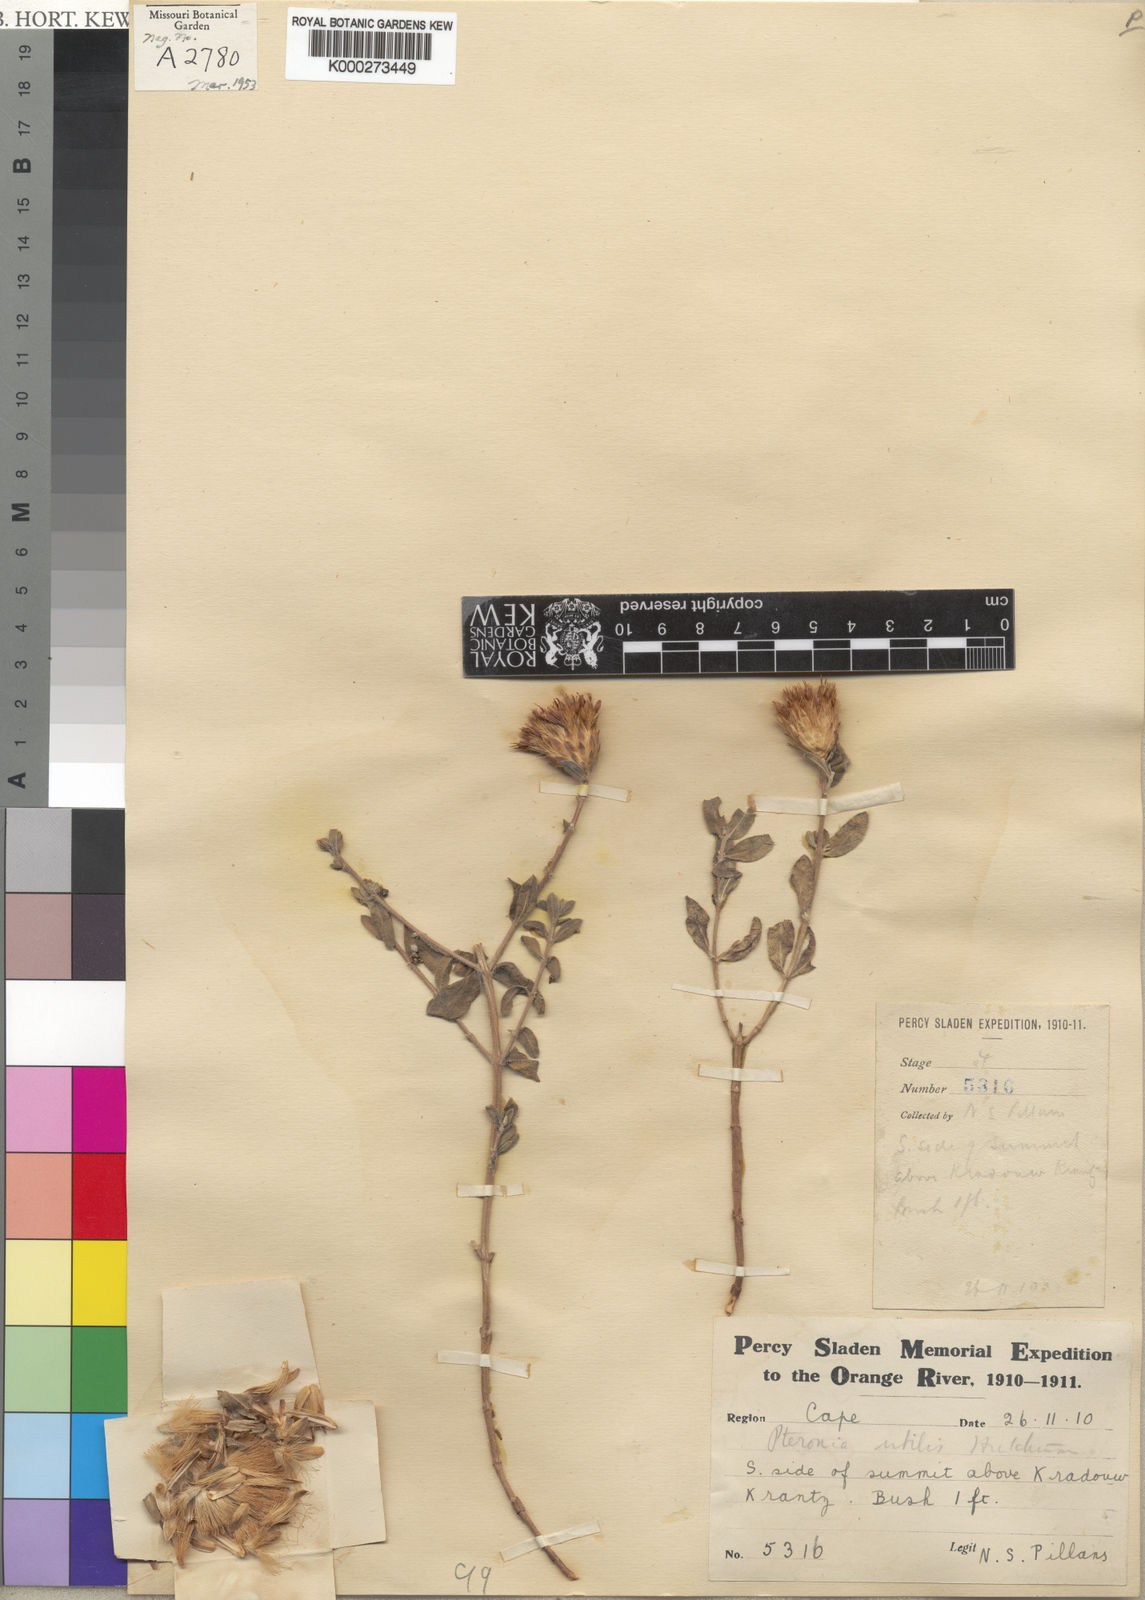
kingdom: Plantae
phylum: Tracheophyta
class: Magnoliopsida
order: Asterales
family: Asteraceae
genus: Pteronia
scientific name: Pteronia utilis
